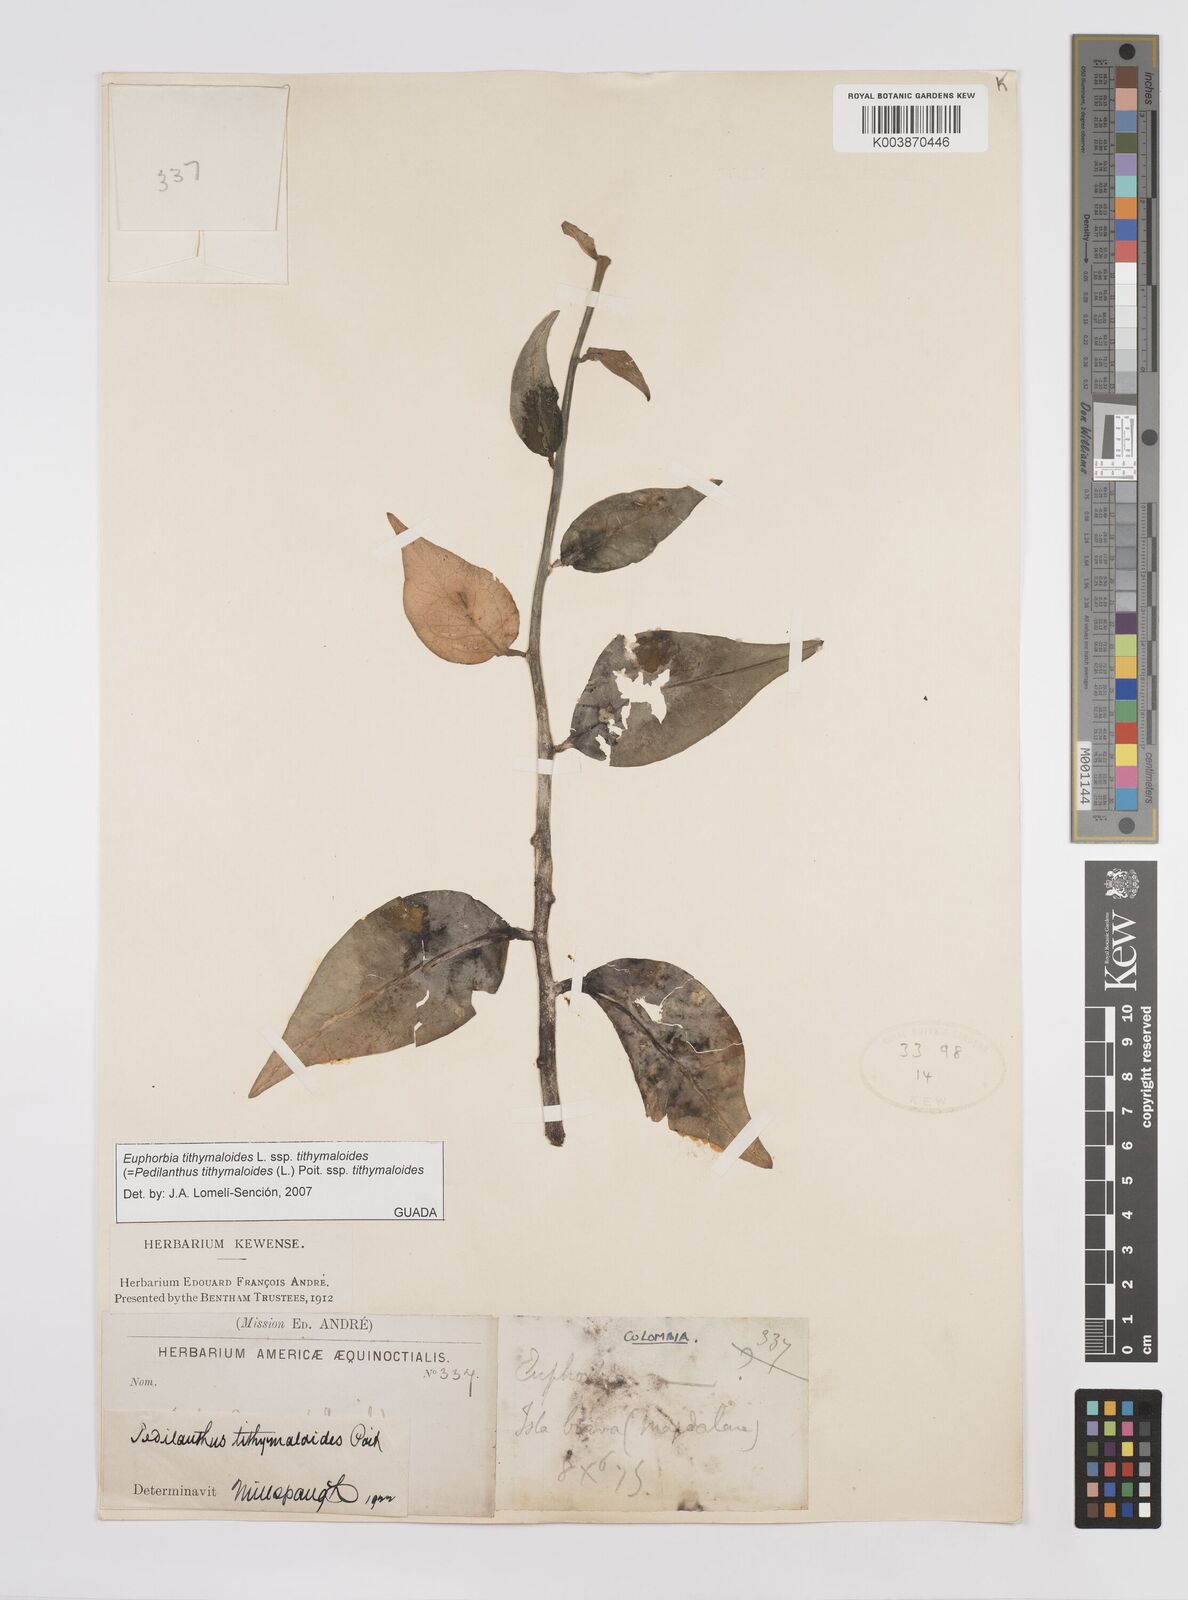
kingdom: Plantae
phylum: Tracheophyta
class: Magnoliopsida
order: Malpighiales
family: Euphorbiaceae
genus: Euphorbia
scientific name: Euphorbia tithymaloides
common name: Slipperplant
